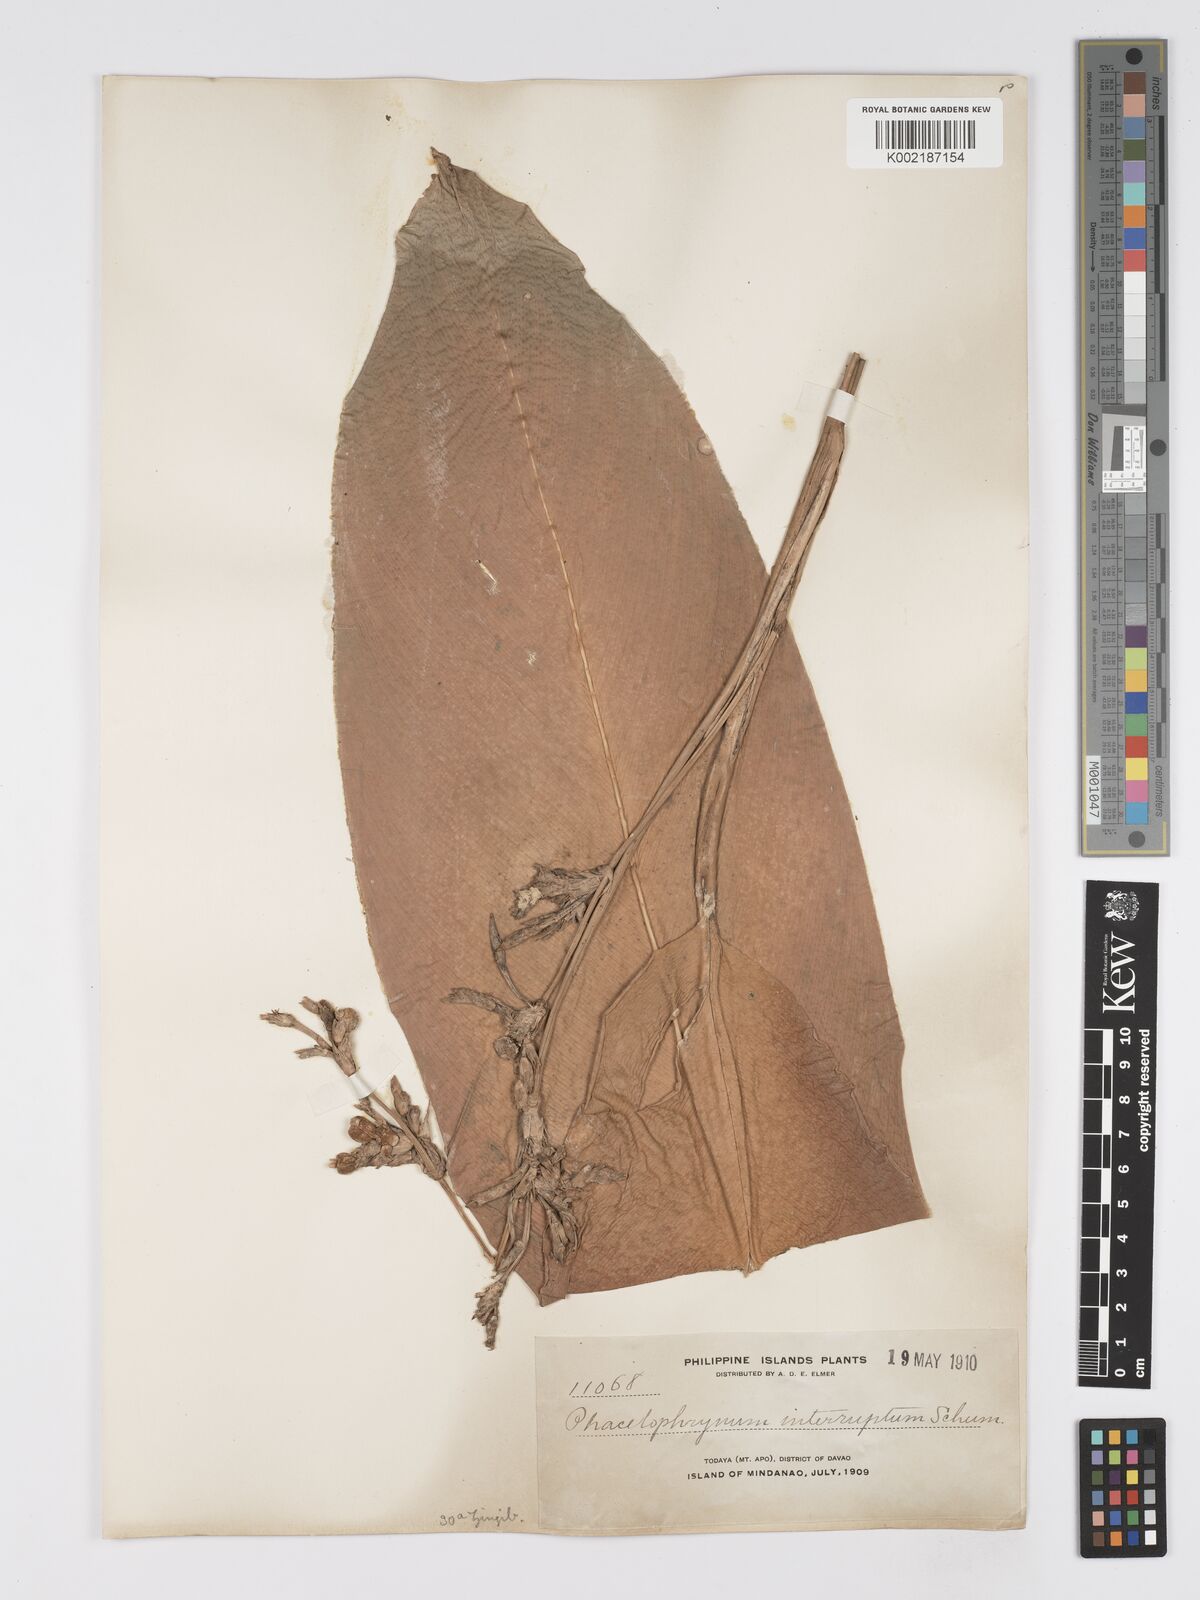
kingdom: Plantae
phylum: Tracheophyta
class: Liliopsida
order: Zingiberales
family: Marantaceae
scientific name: Marantaceae
